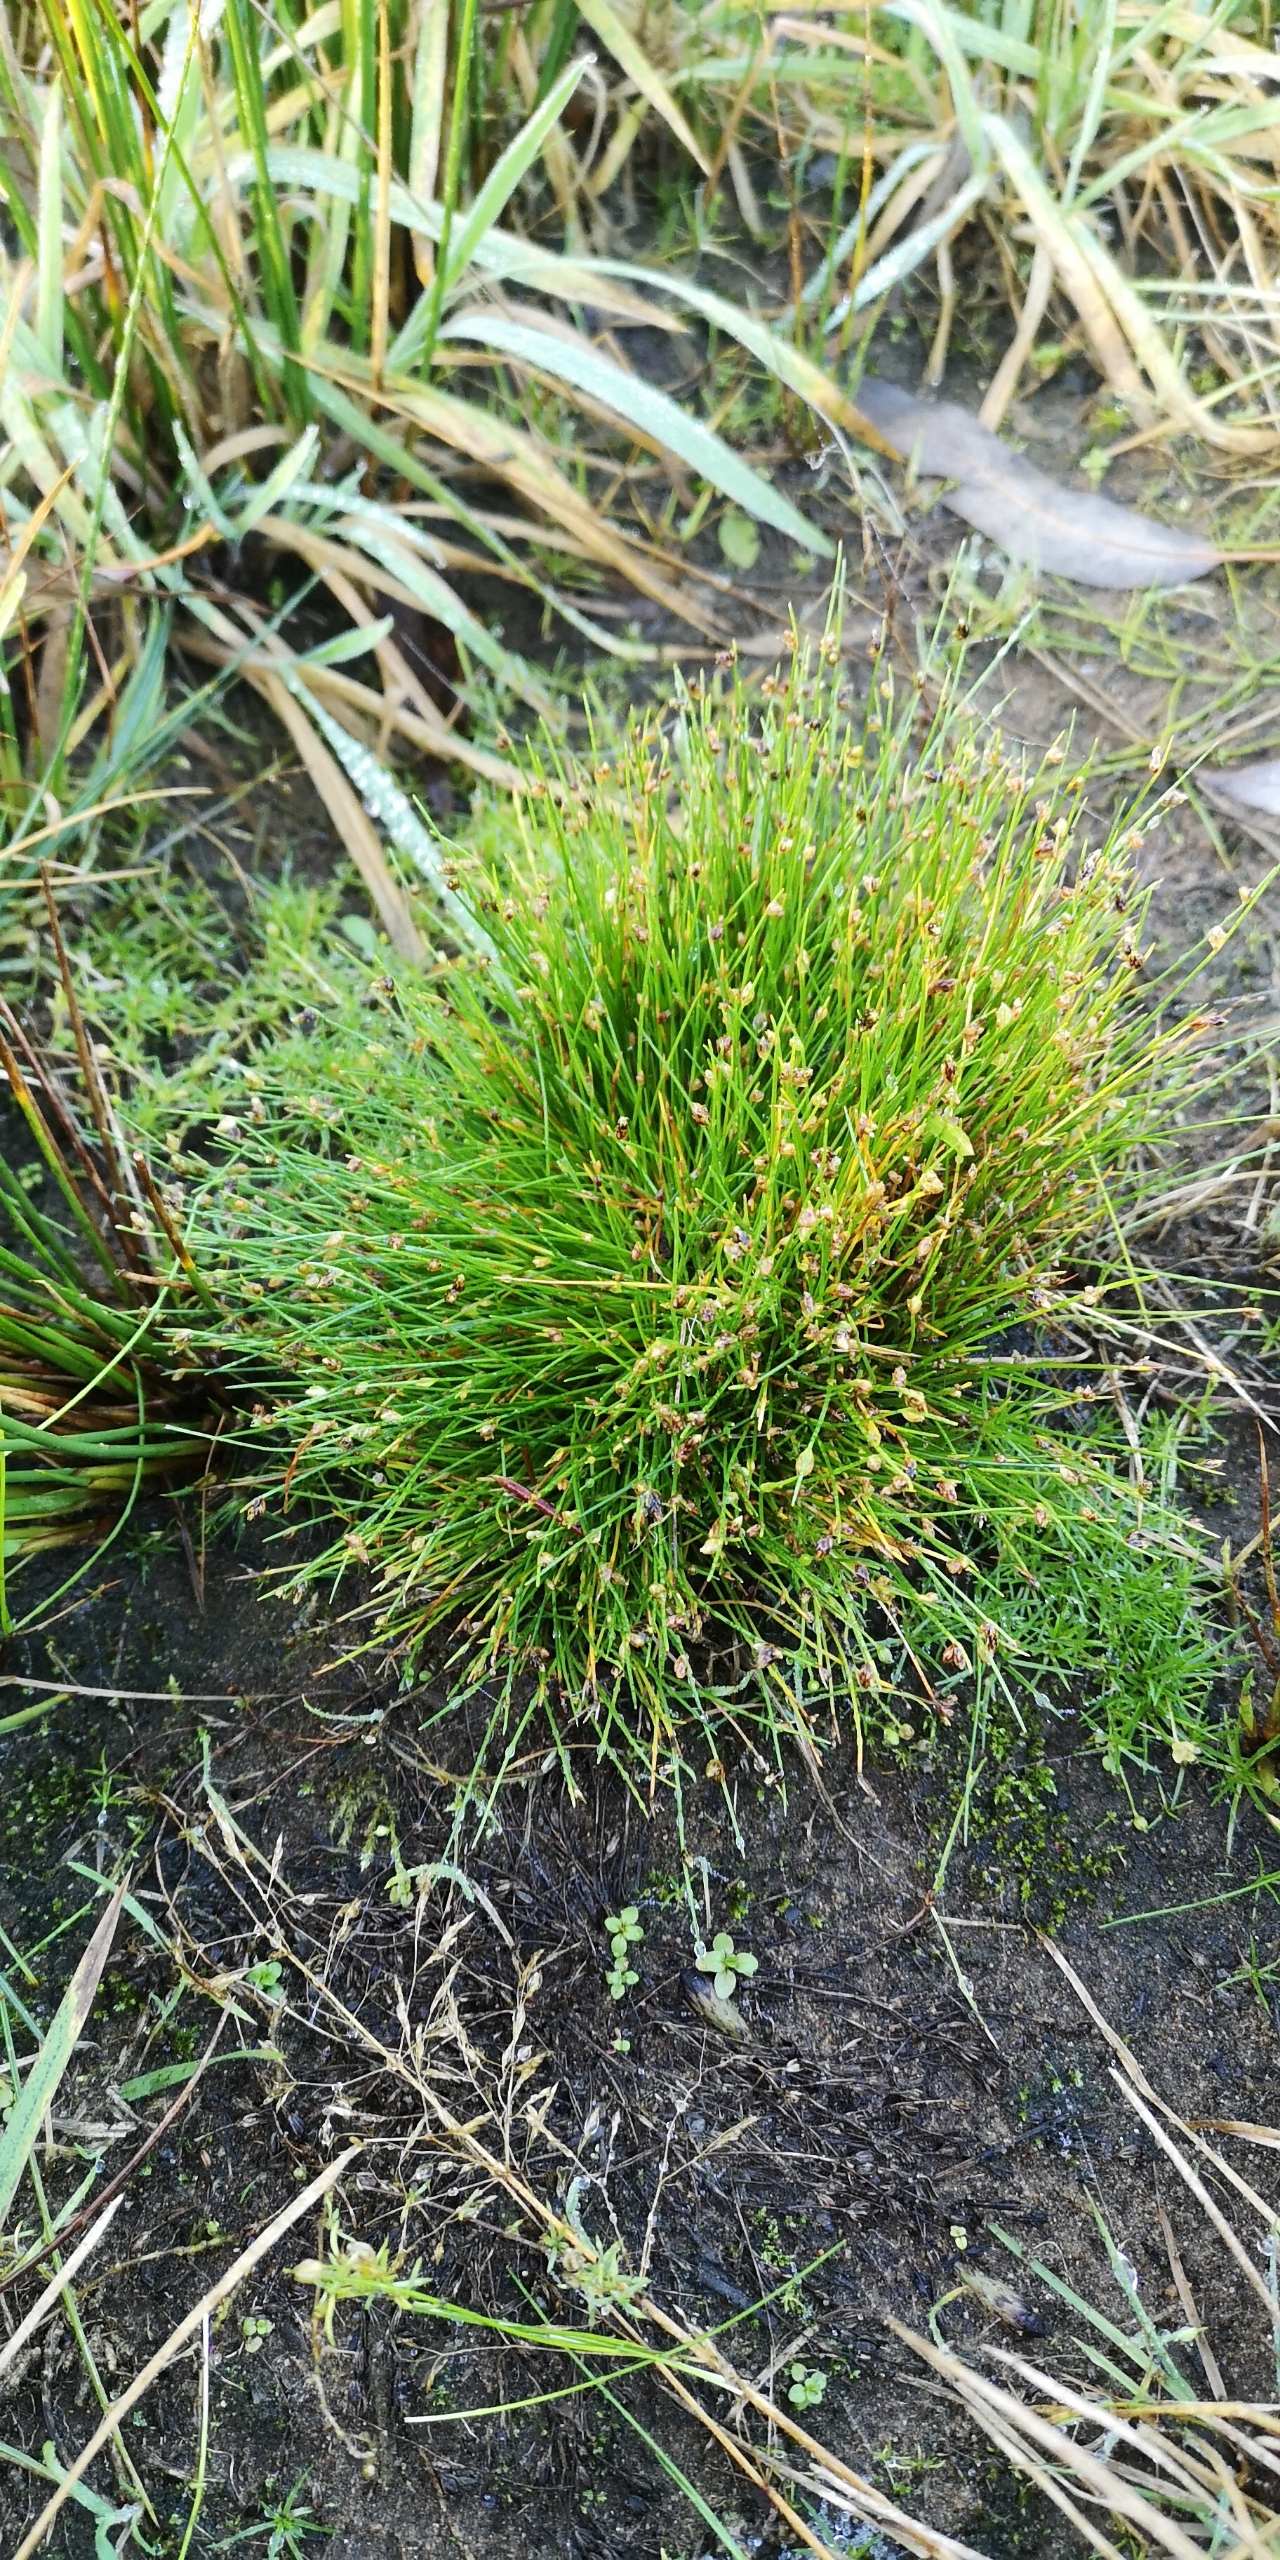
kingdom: Plantae
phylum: Tracheophyta
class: Liliopsida
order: Poales
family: Cyperaceae
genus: Isolepis
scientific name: Isolepis setacea
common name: Børste-kogleaks
